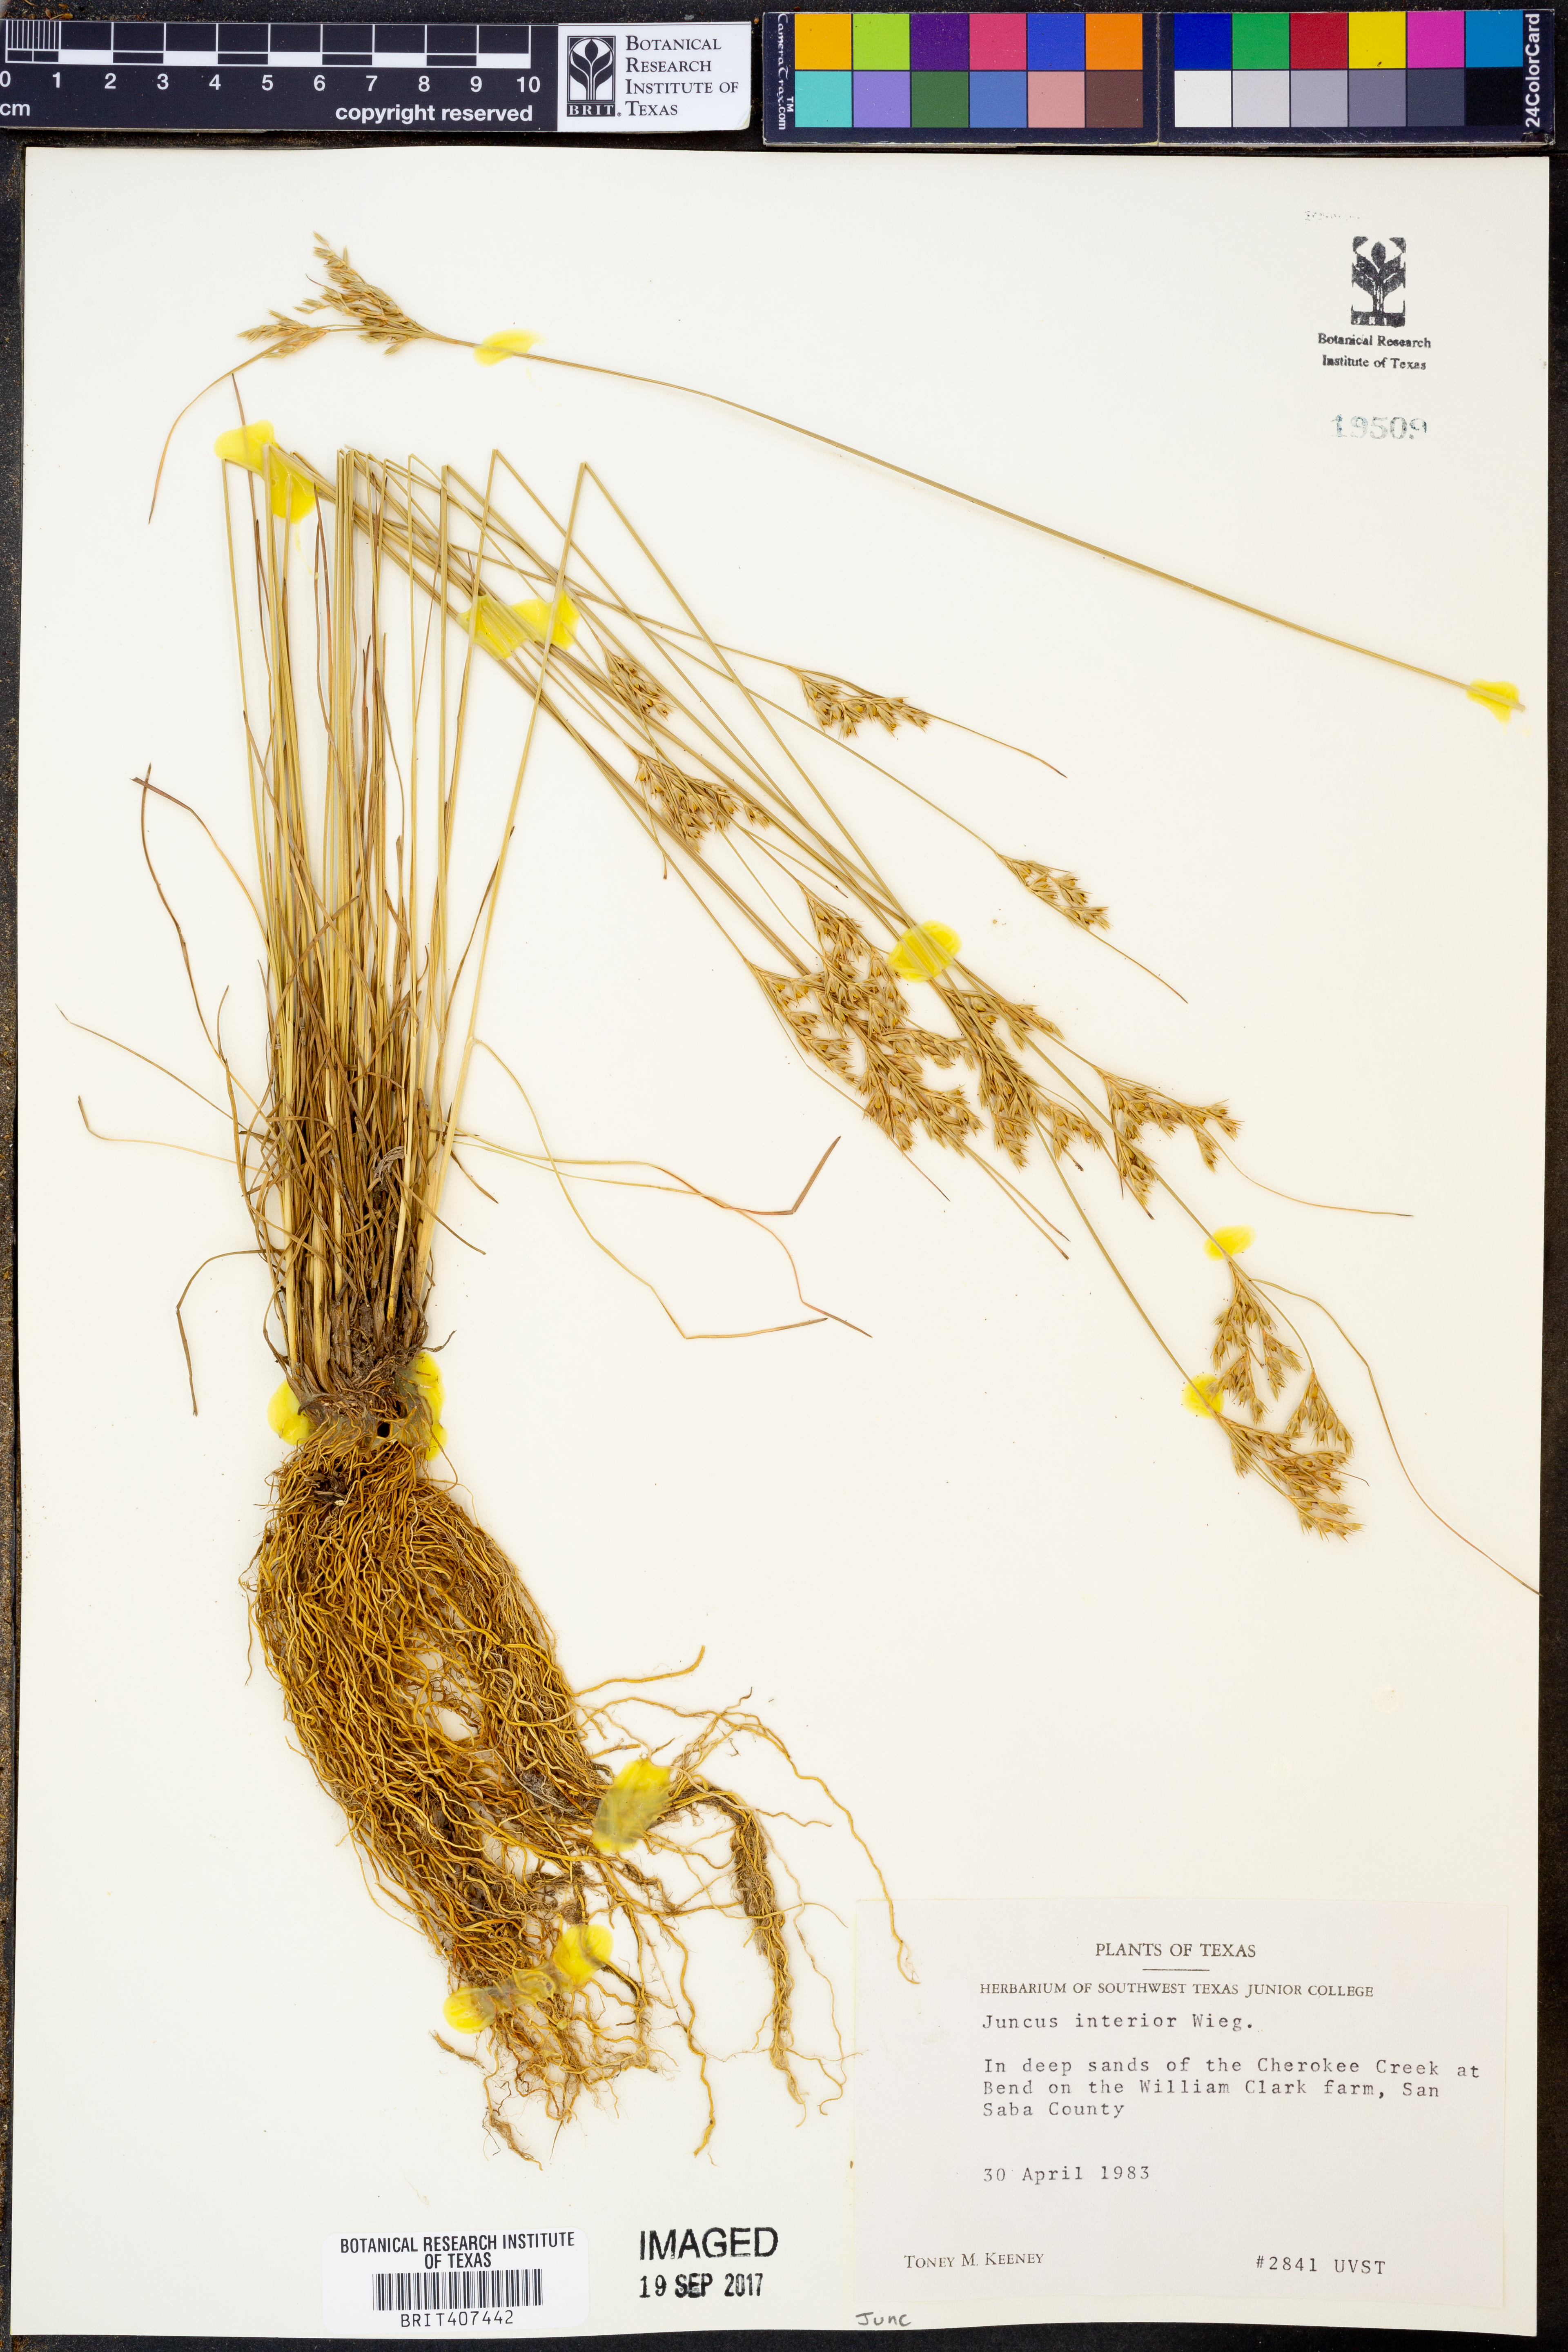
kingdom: Plantae
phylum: Tracheophyta
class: Liliopsida
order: Poales
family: Juncaceae
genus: Juncus
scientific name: Juncus interior
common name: Interior rush
